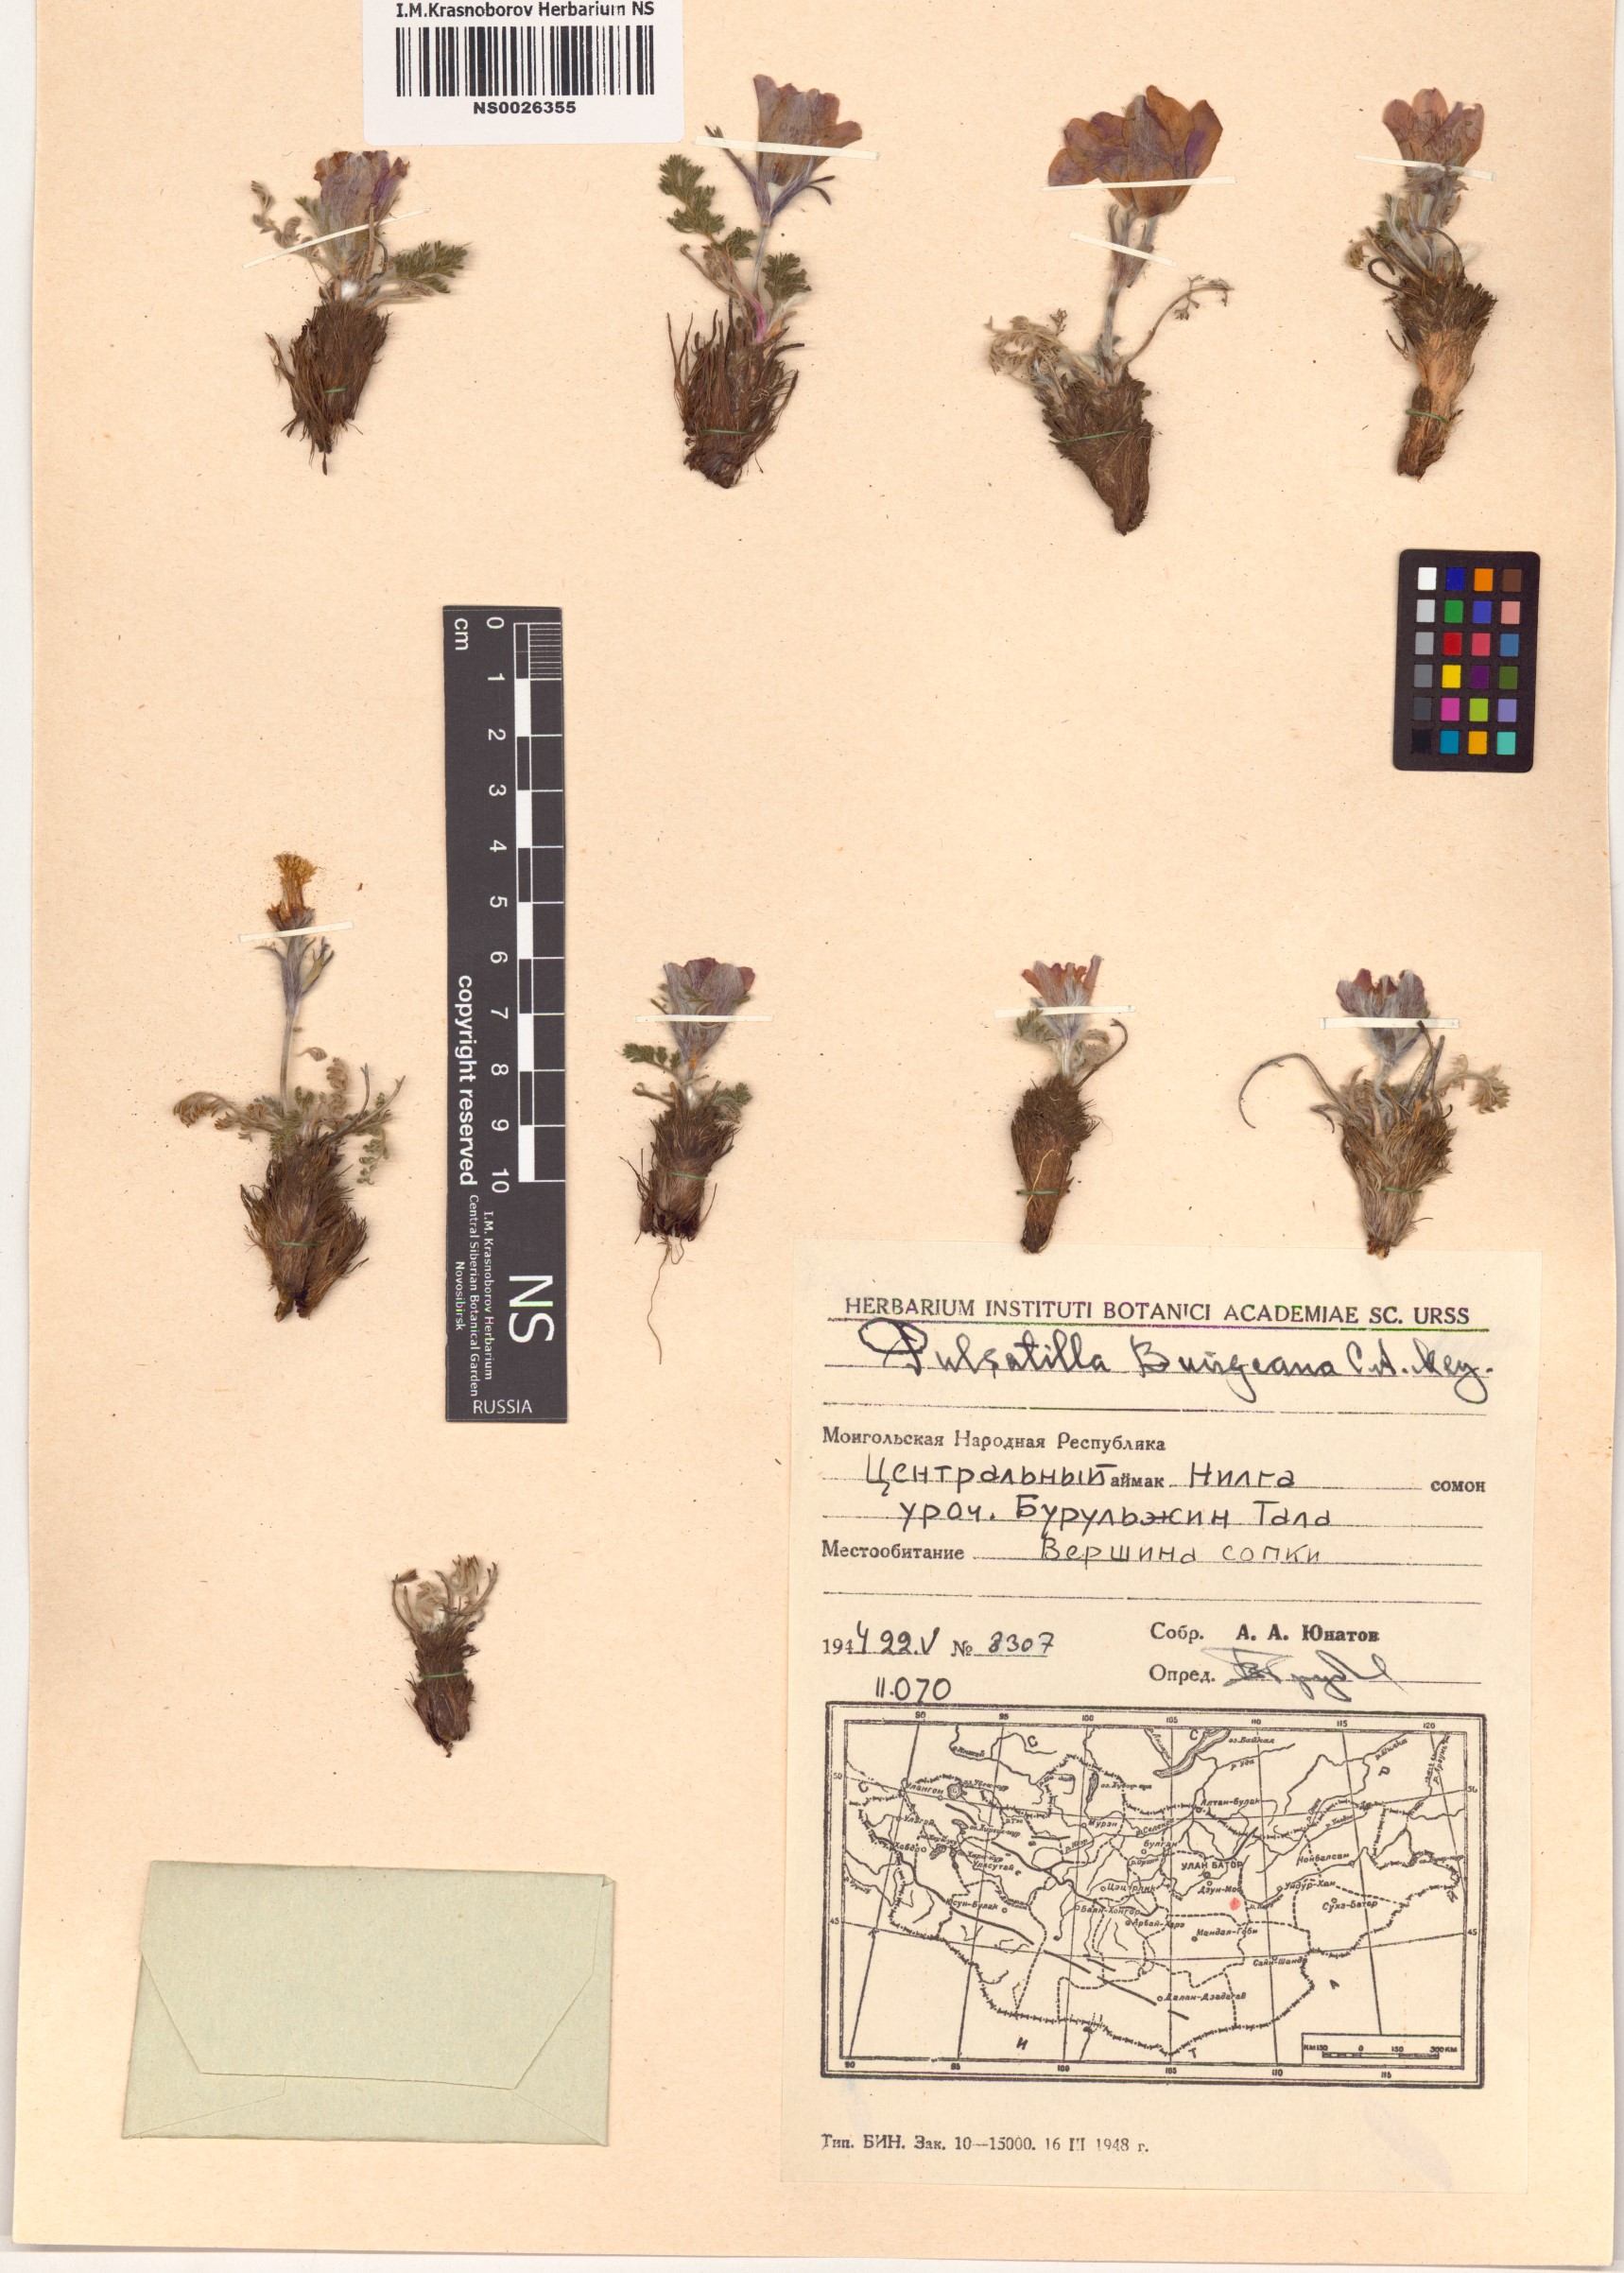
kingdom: Plantae
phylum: Tracheophyta
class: Magnoliopsida
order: Ranunculales
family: Ranunculaceae
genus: Pulsatilla
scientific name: Pulsatilla bungeana
